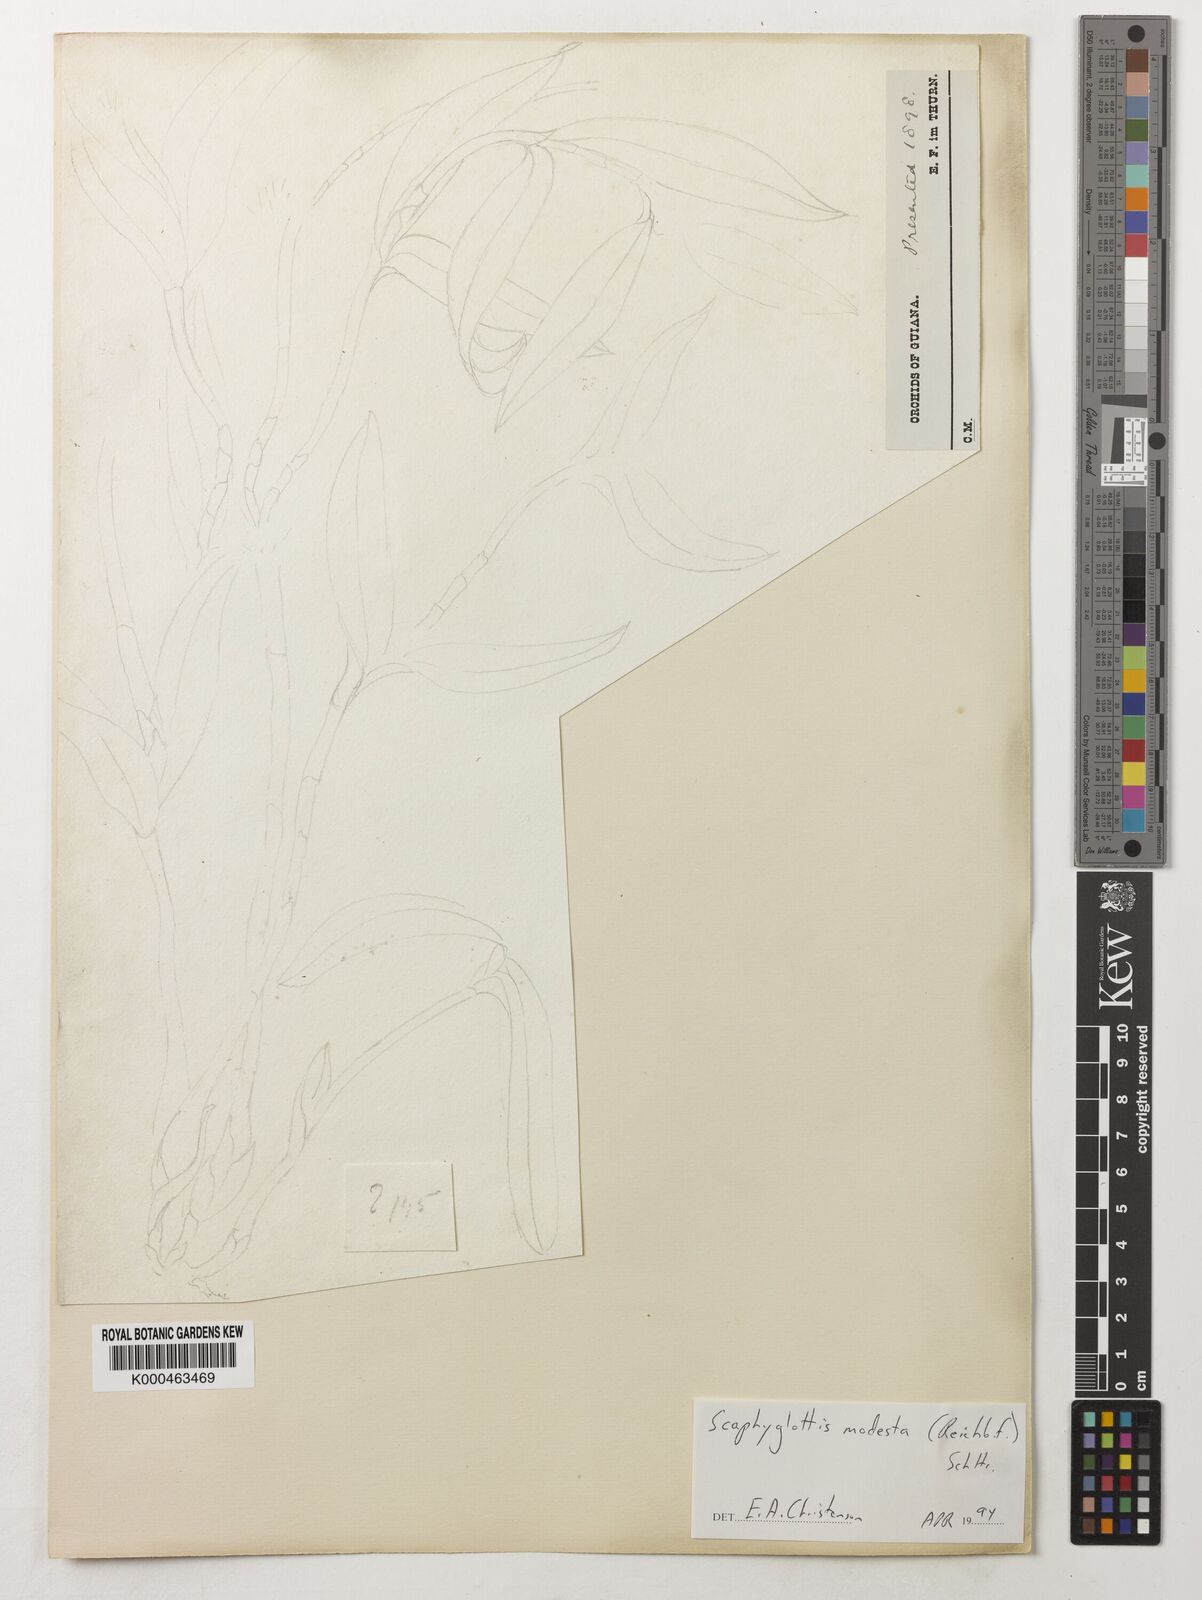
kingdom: Plantae
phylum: Tracheophyta
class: Liliopsida
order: Asparagales
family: Orchidaceae
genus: Scaphyglottis
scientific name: Scaphyglottis modesta
